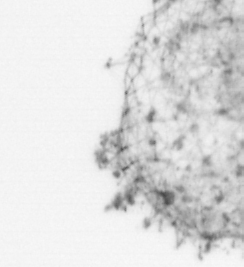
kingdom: Animalia
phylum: Chordata
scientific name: Chordata
